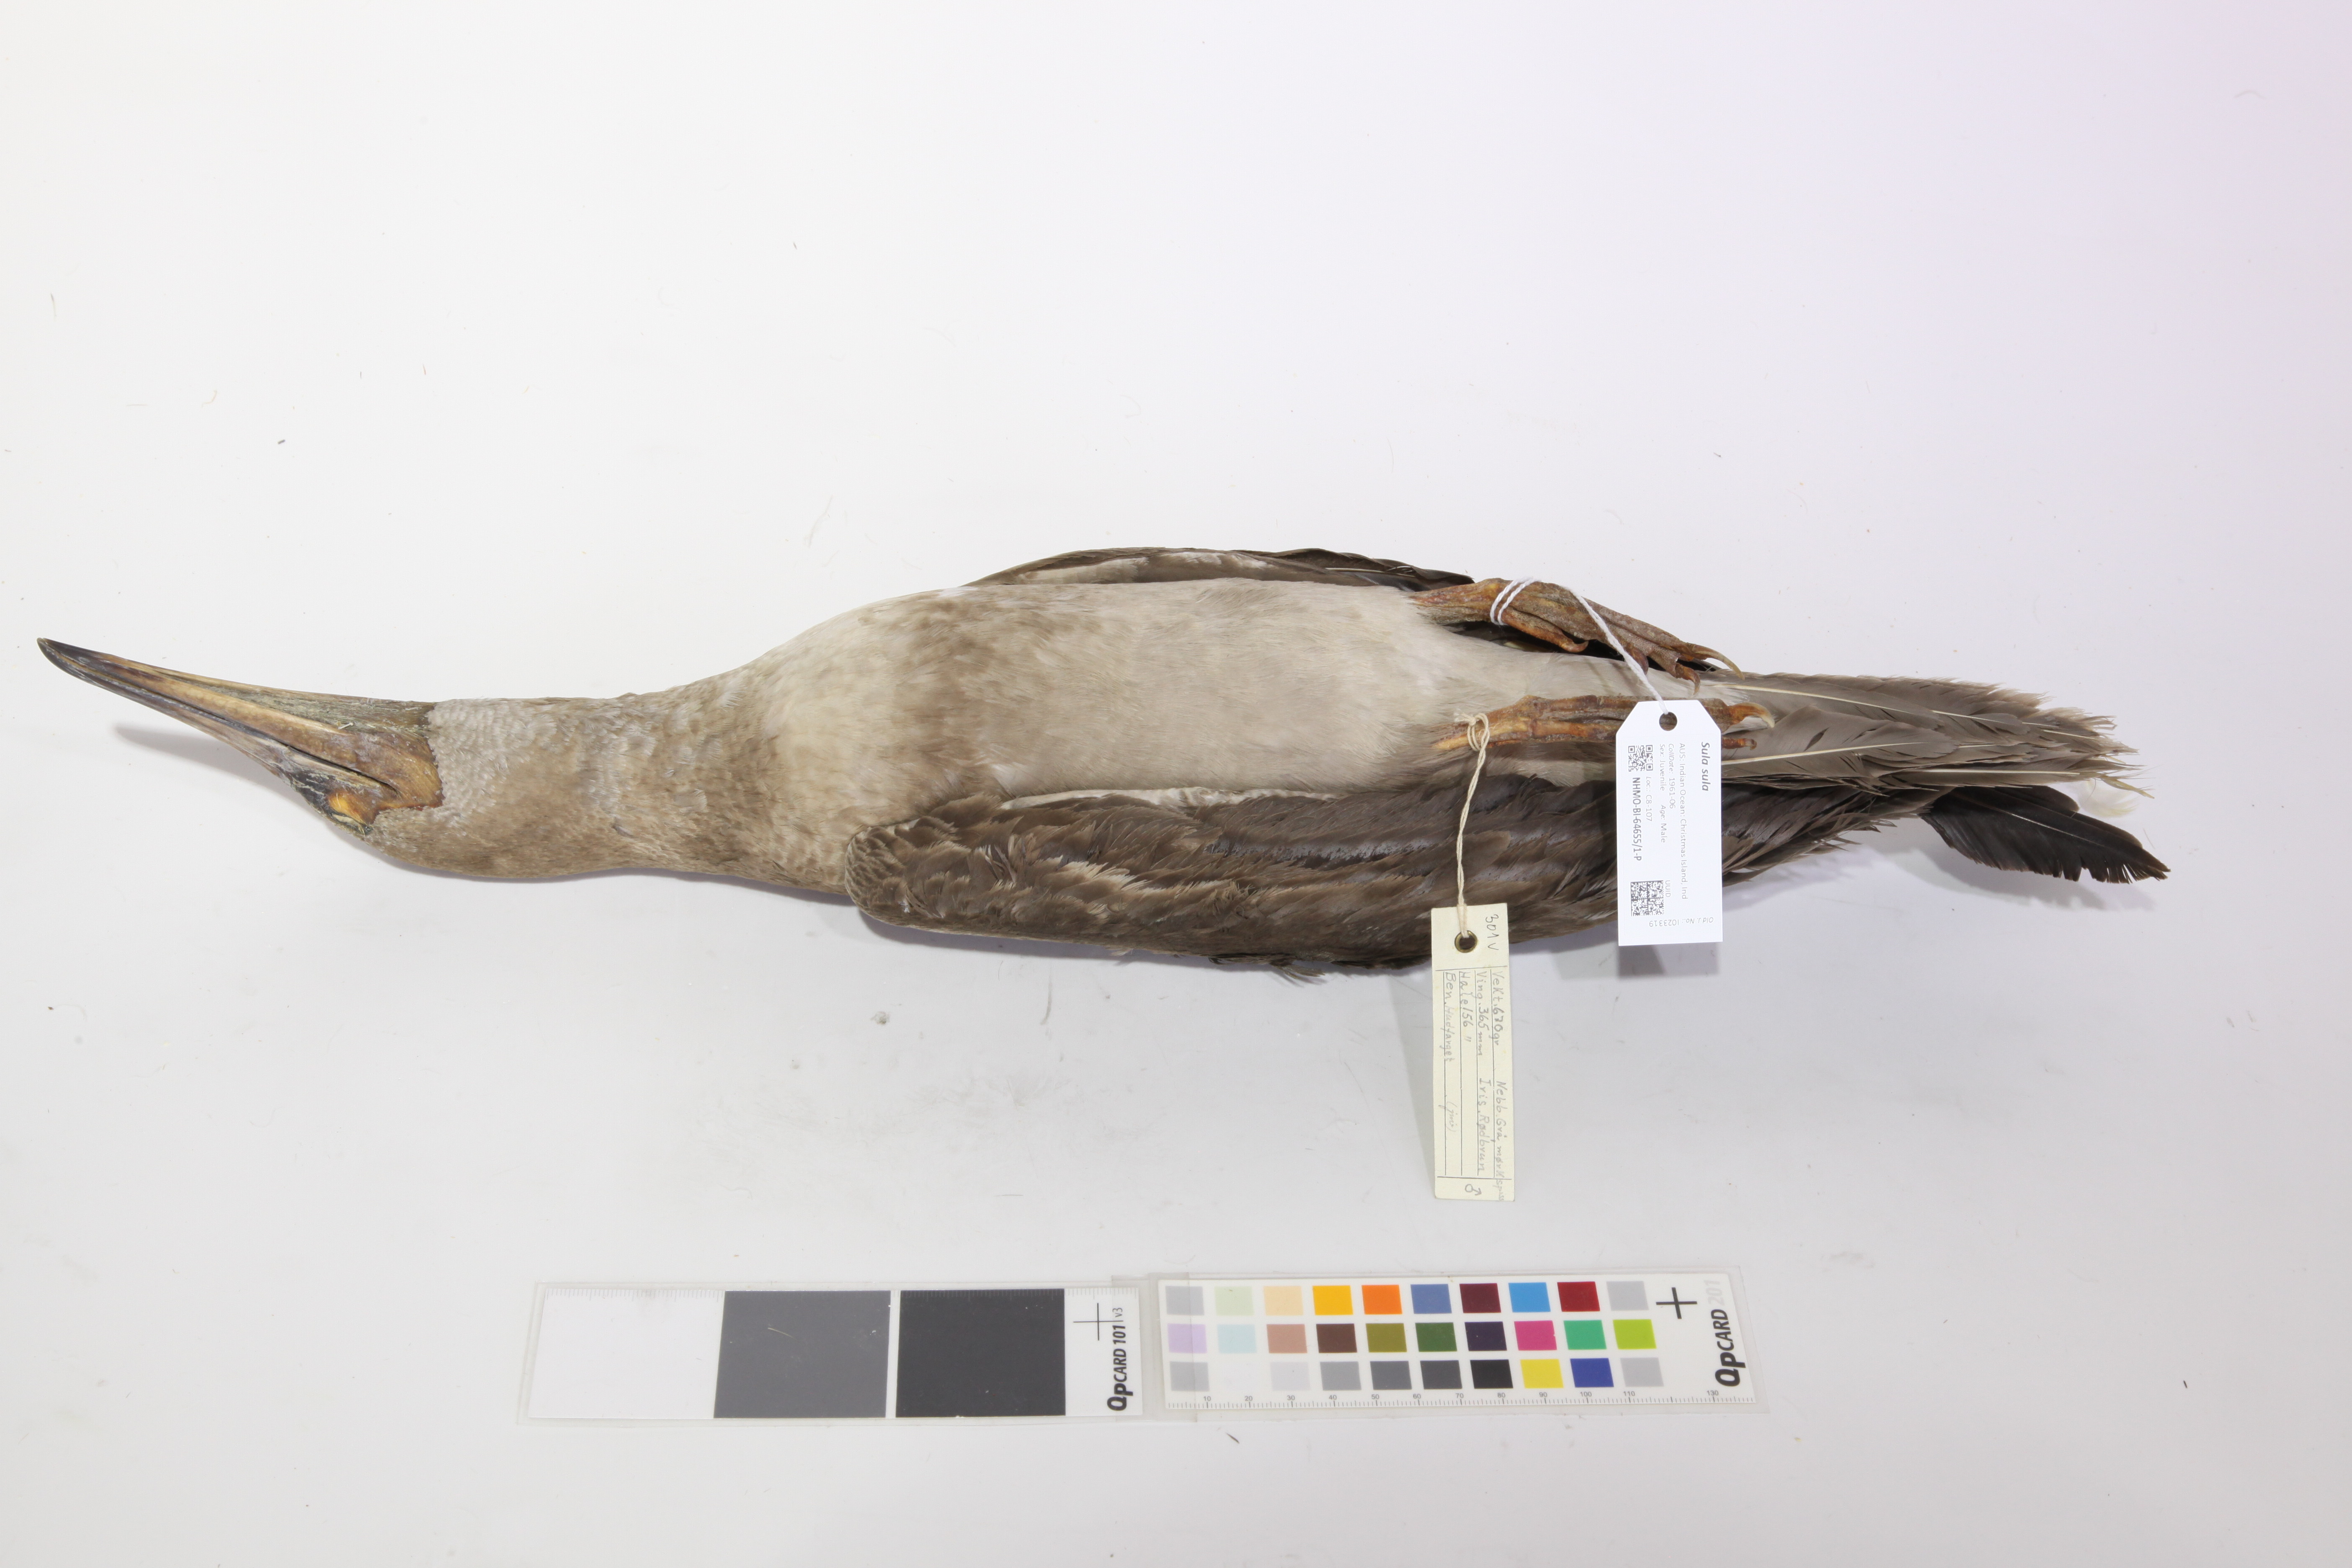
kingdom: Animalia
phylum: Chordata
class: Aves
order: Suliformes
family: Sulidae
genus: Sula
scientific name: Sula sula
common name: Red-footed booby
